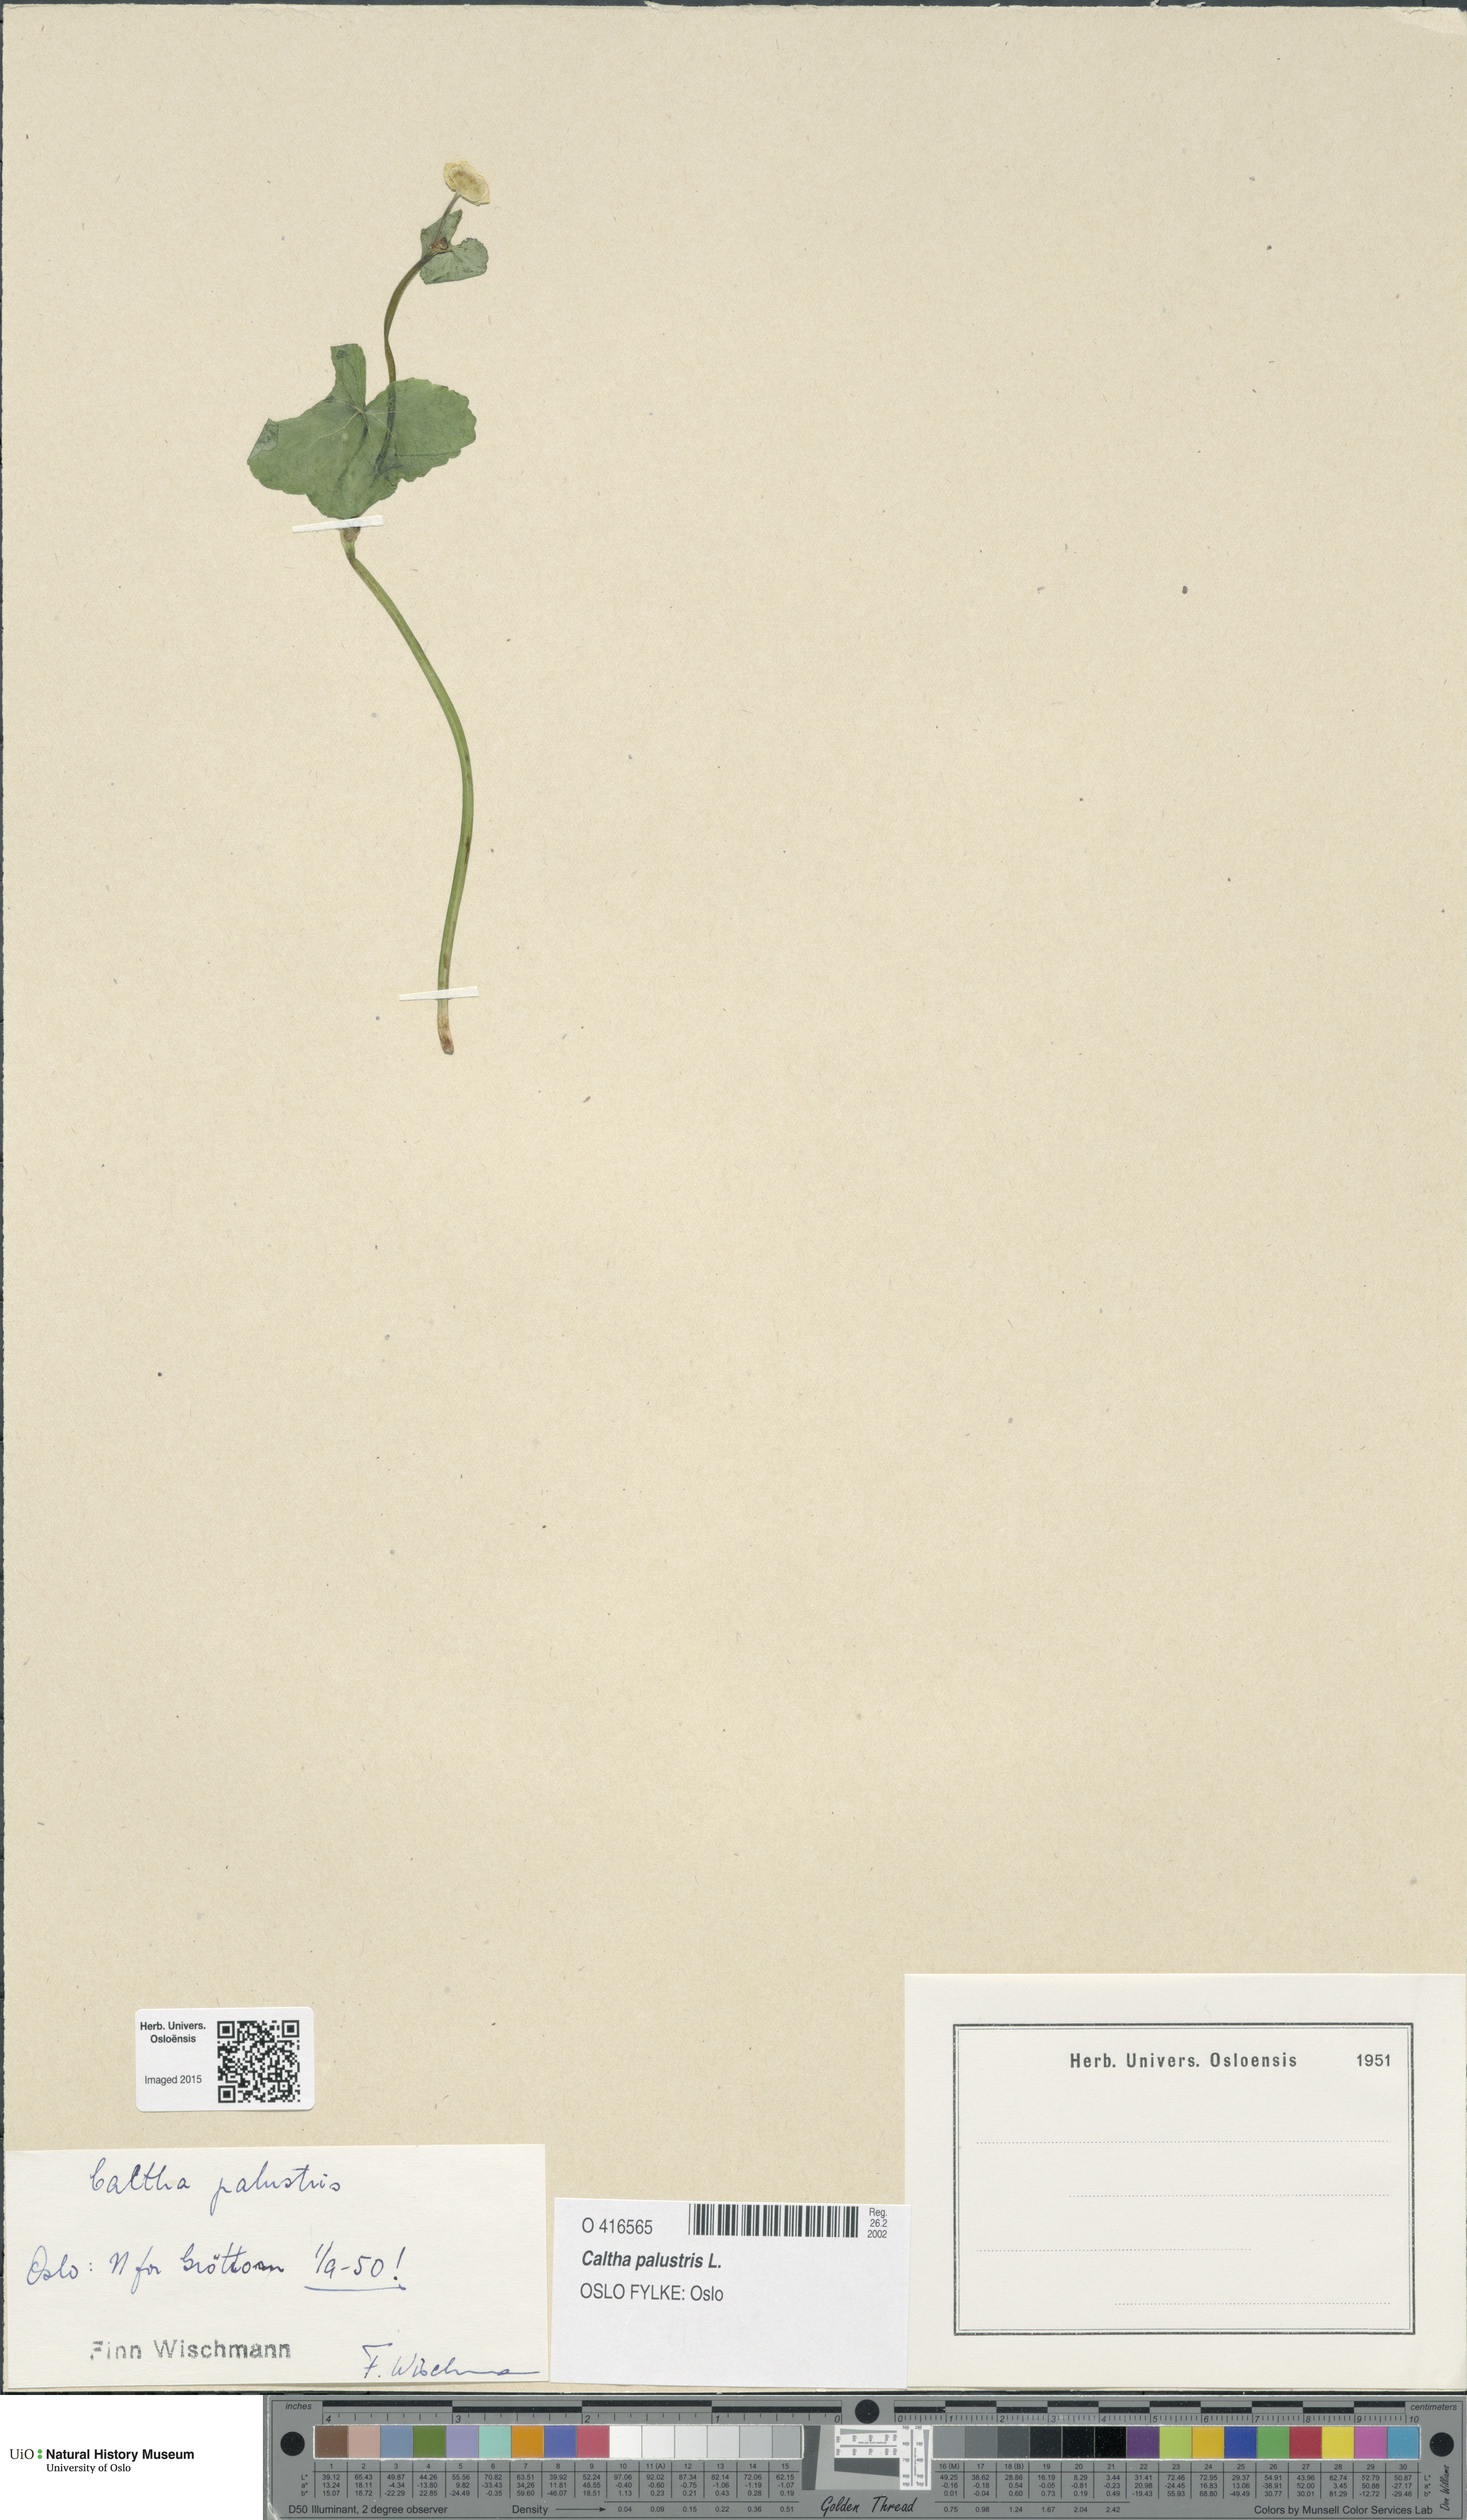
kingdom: Plantae
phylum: Tracheophyta
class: Magnoliopsida
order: Ranunculales
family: Ranunculaceae
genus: Caltha
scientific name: Caltha palustris
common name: Marsh marigold
